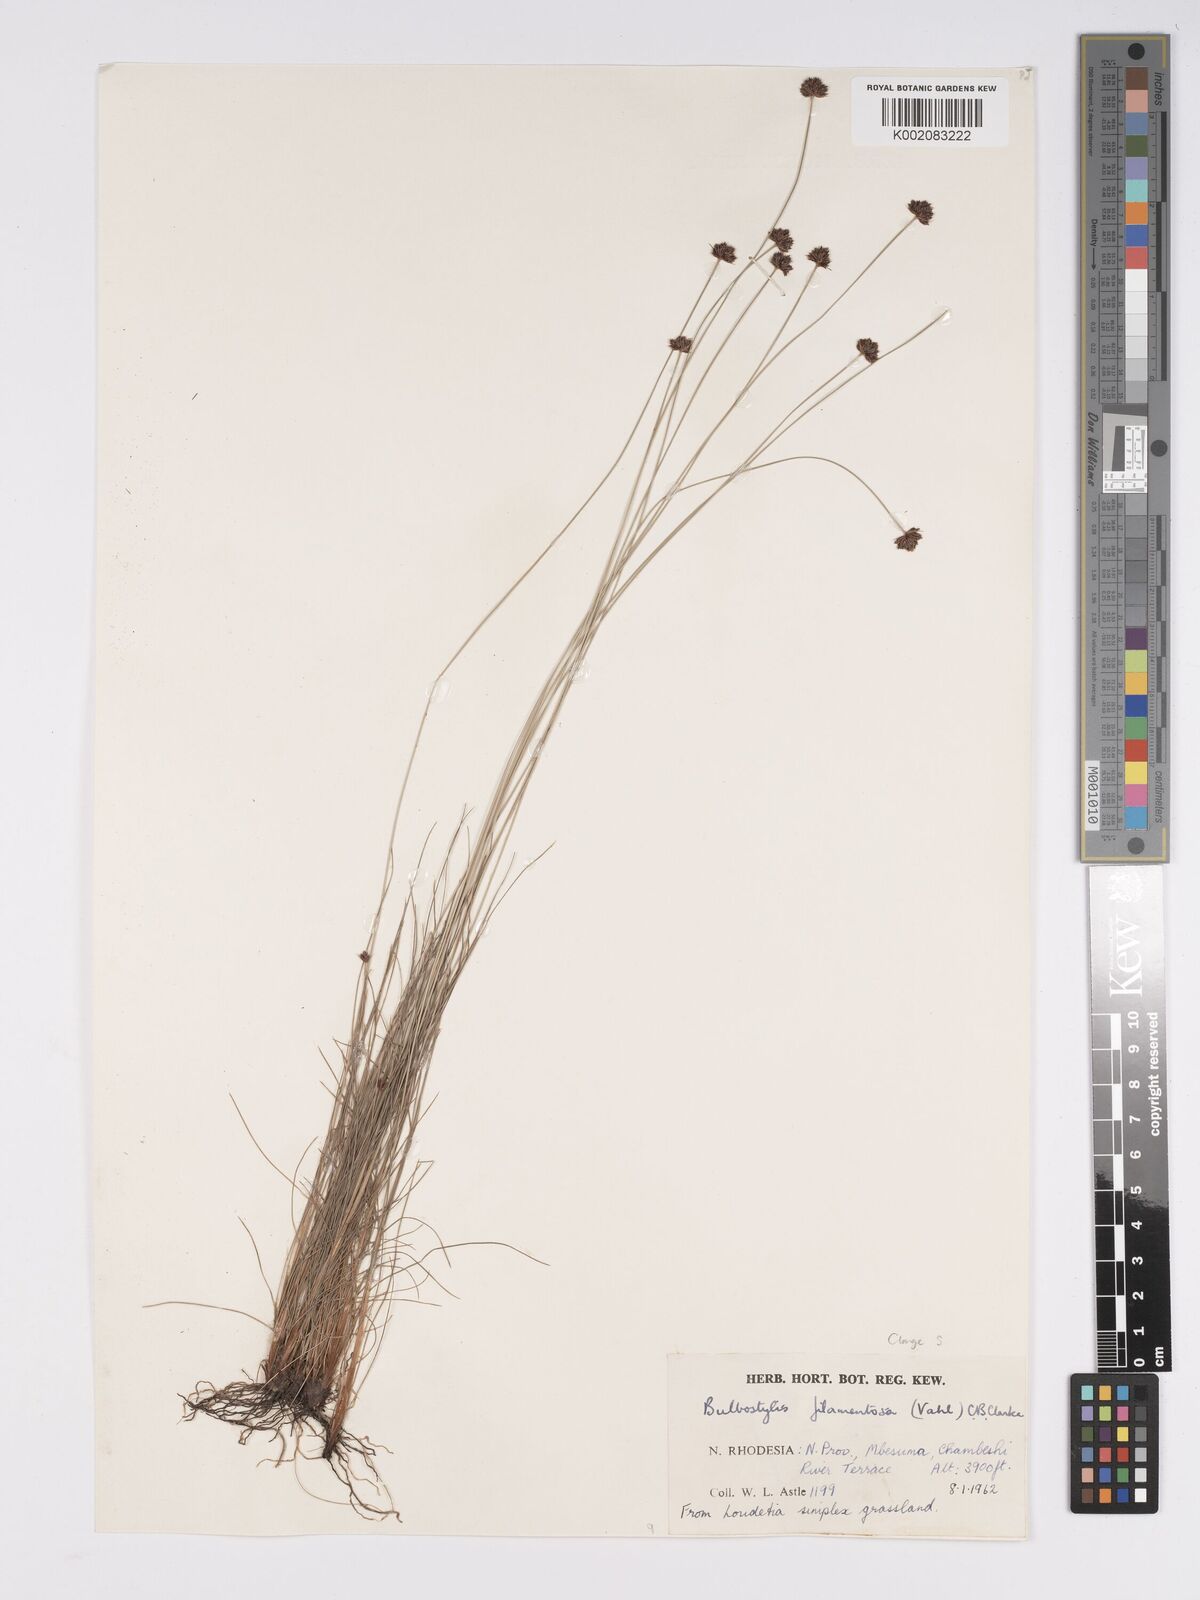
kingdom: Plantae
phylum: Tracheophyta
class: Liliopsida
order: Poales
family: Cyperaceae
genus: Bulbostylis
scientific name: Bulbostylis filamentosa
